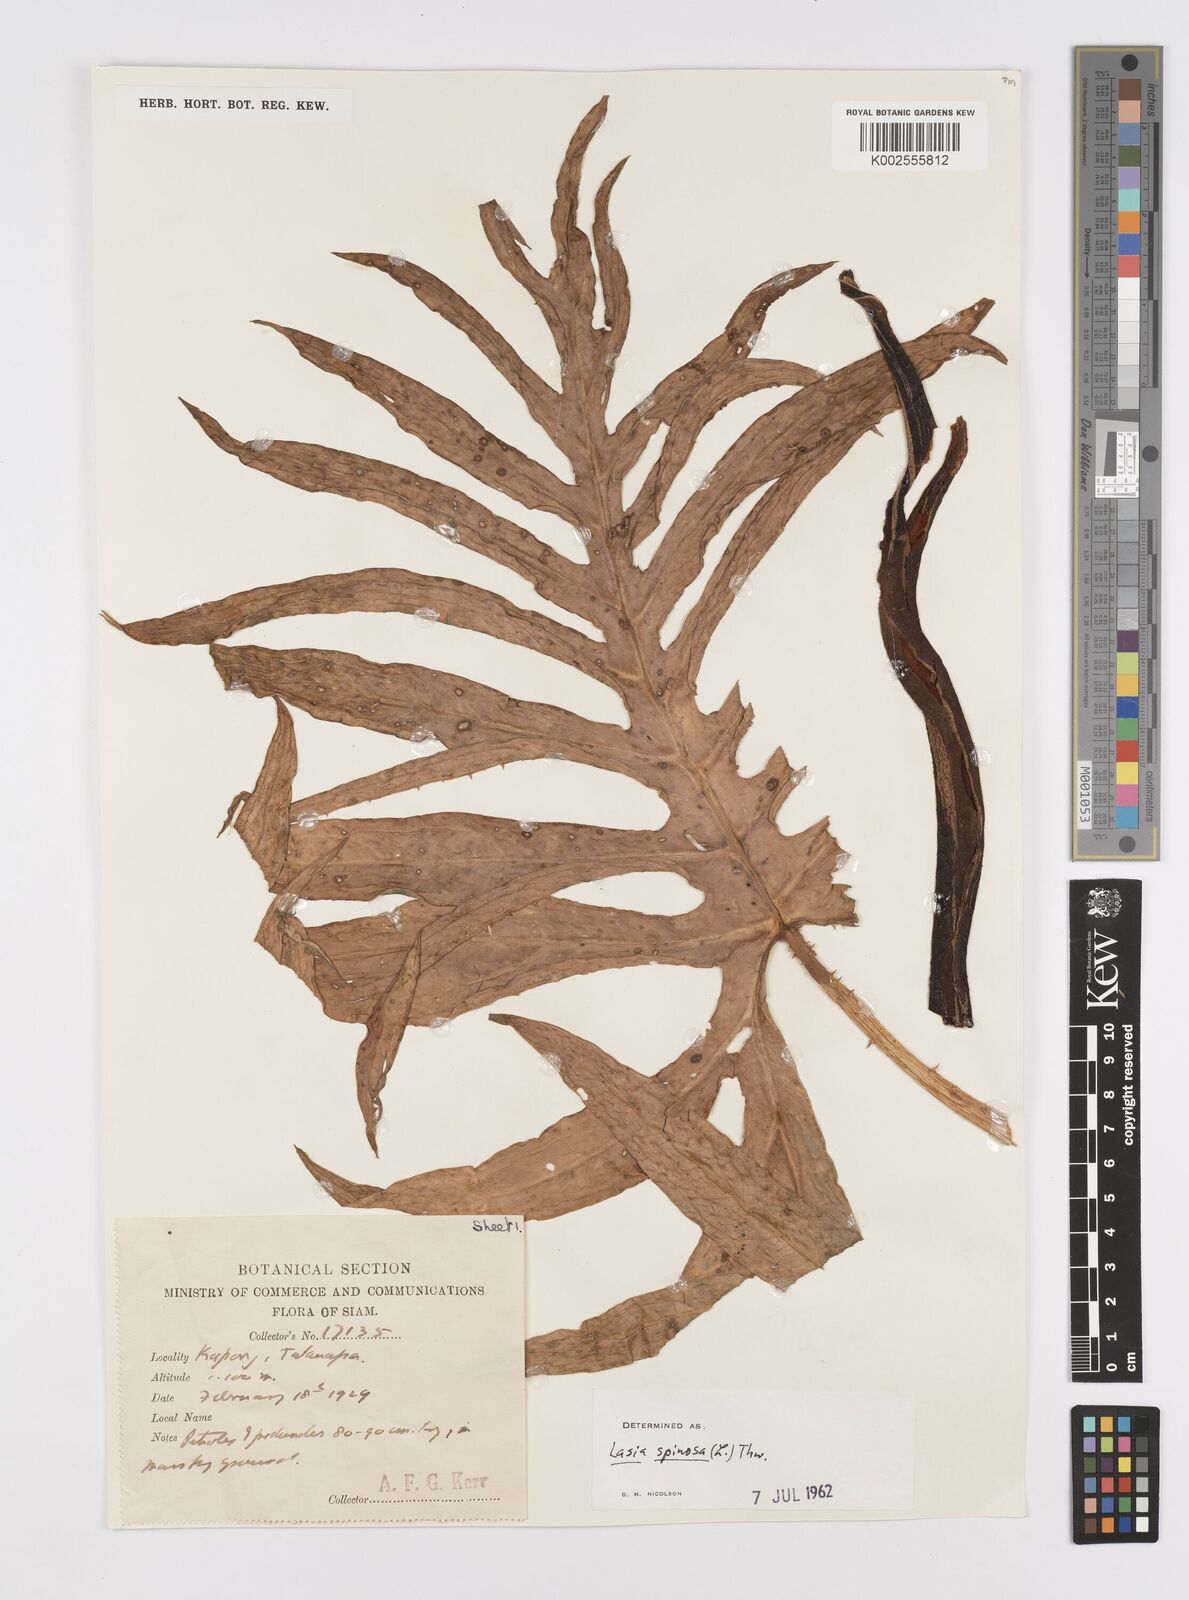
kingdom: Plantae
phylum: Tracheophyta
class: Liliopsida
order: Alismatales
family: Araceae
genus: Lasia
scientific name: Lasia spinosa
